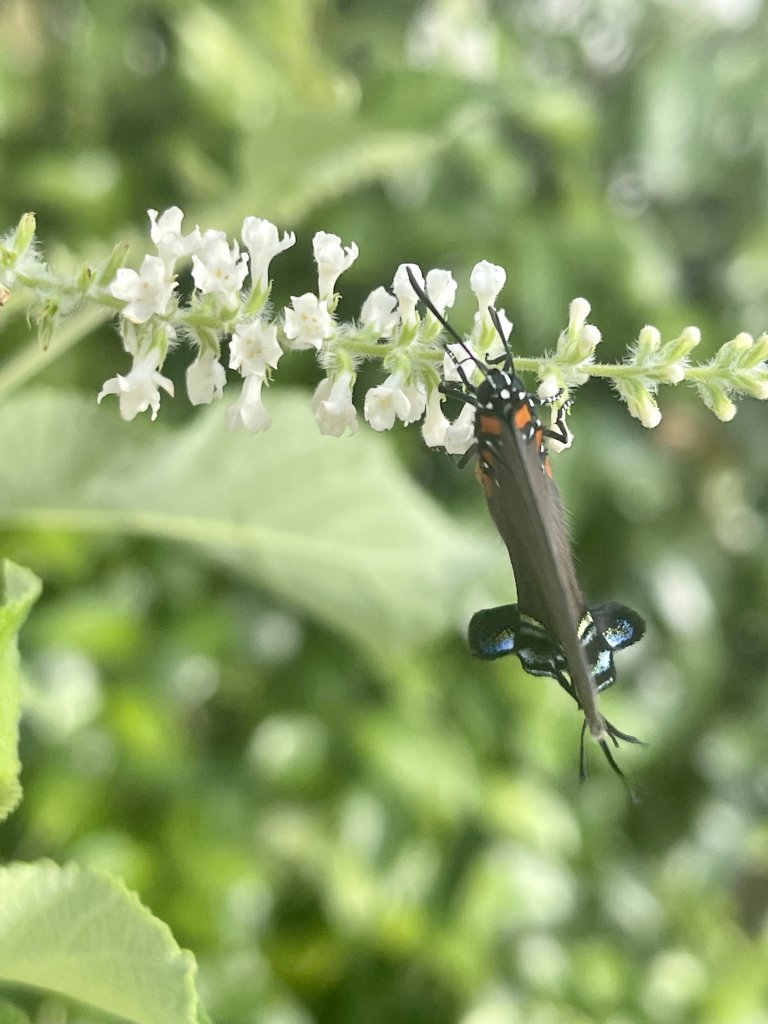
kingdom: Animalia
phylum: Arthropoda
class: Insecta
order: Lepidoptera
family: Lycaenidae
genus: Atlides
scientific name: Atlides halesus
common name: Great Purple Hairstreak
